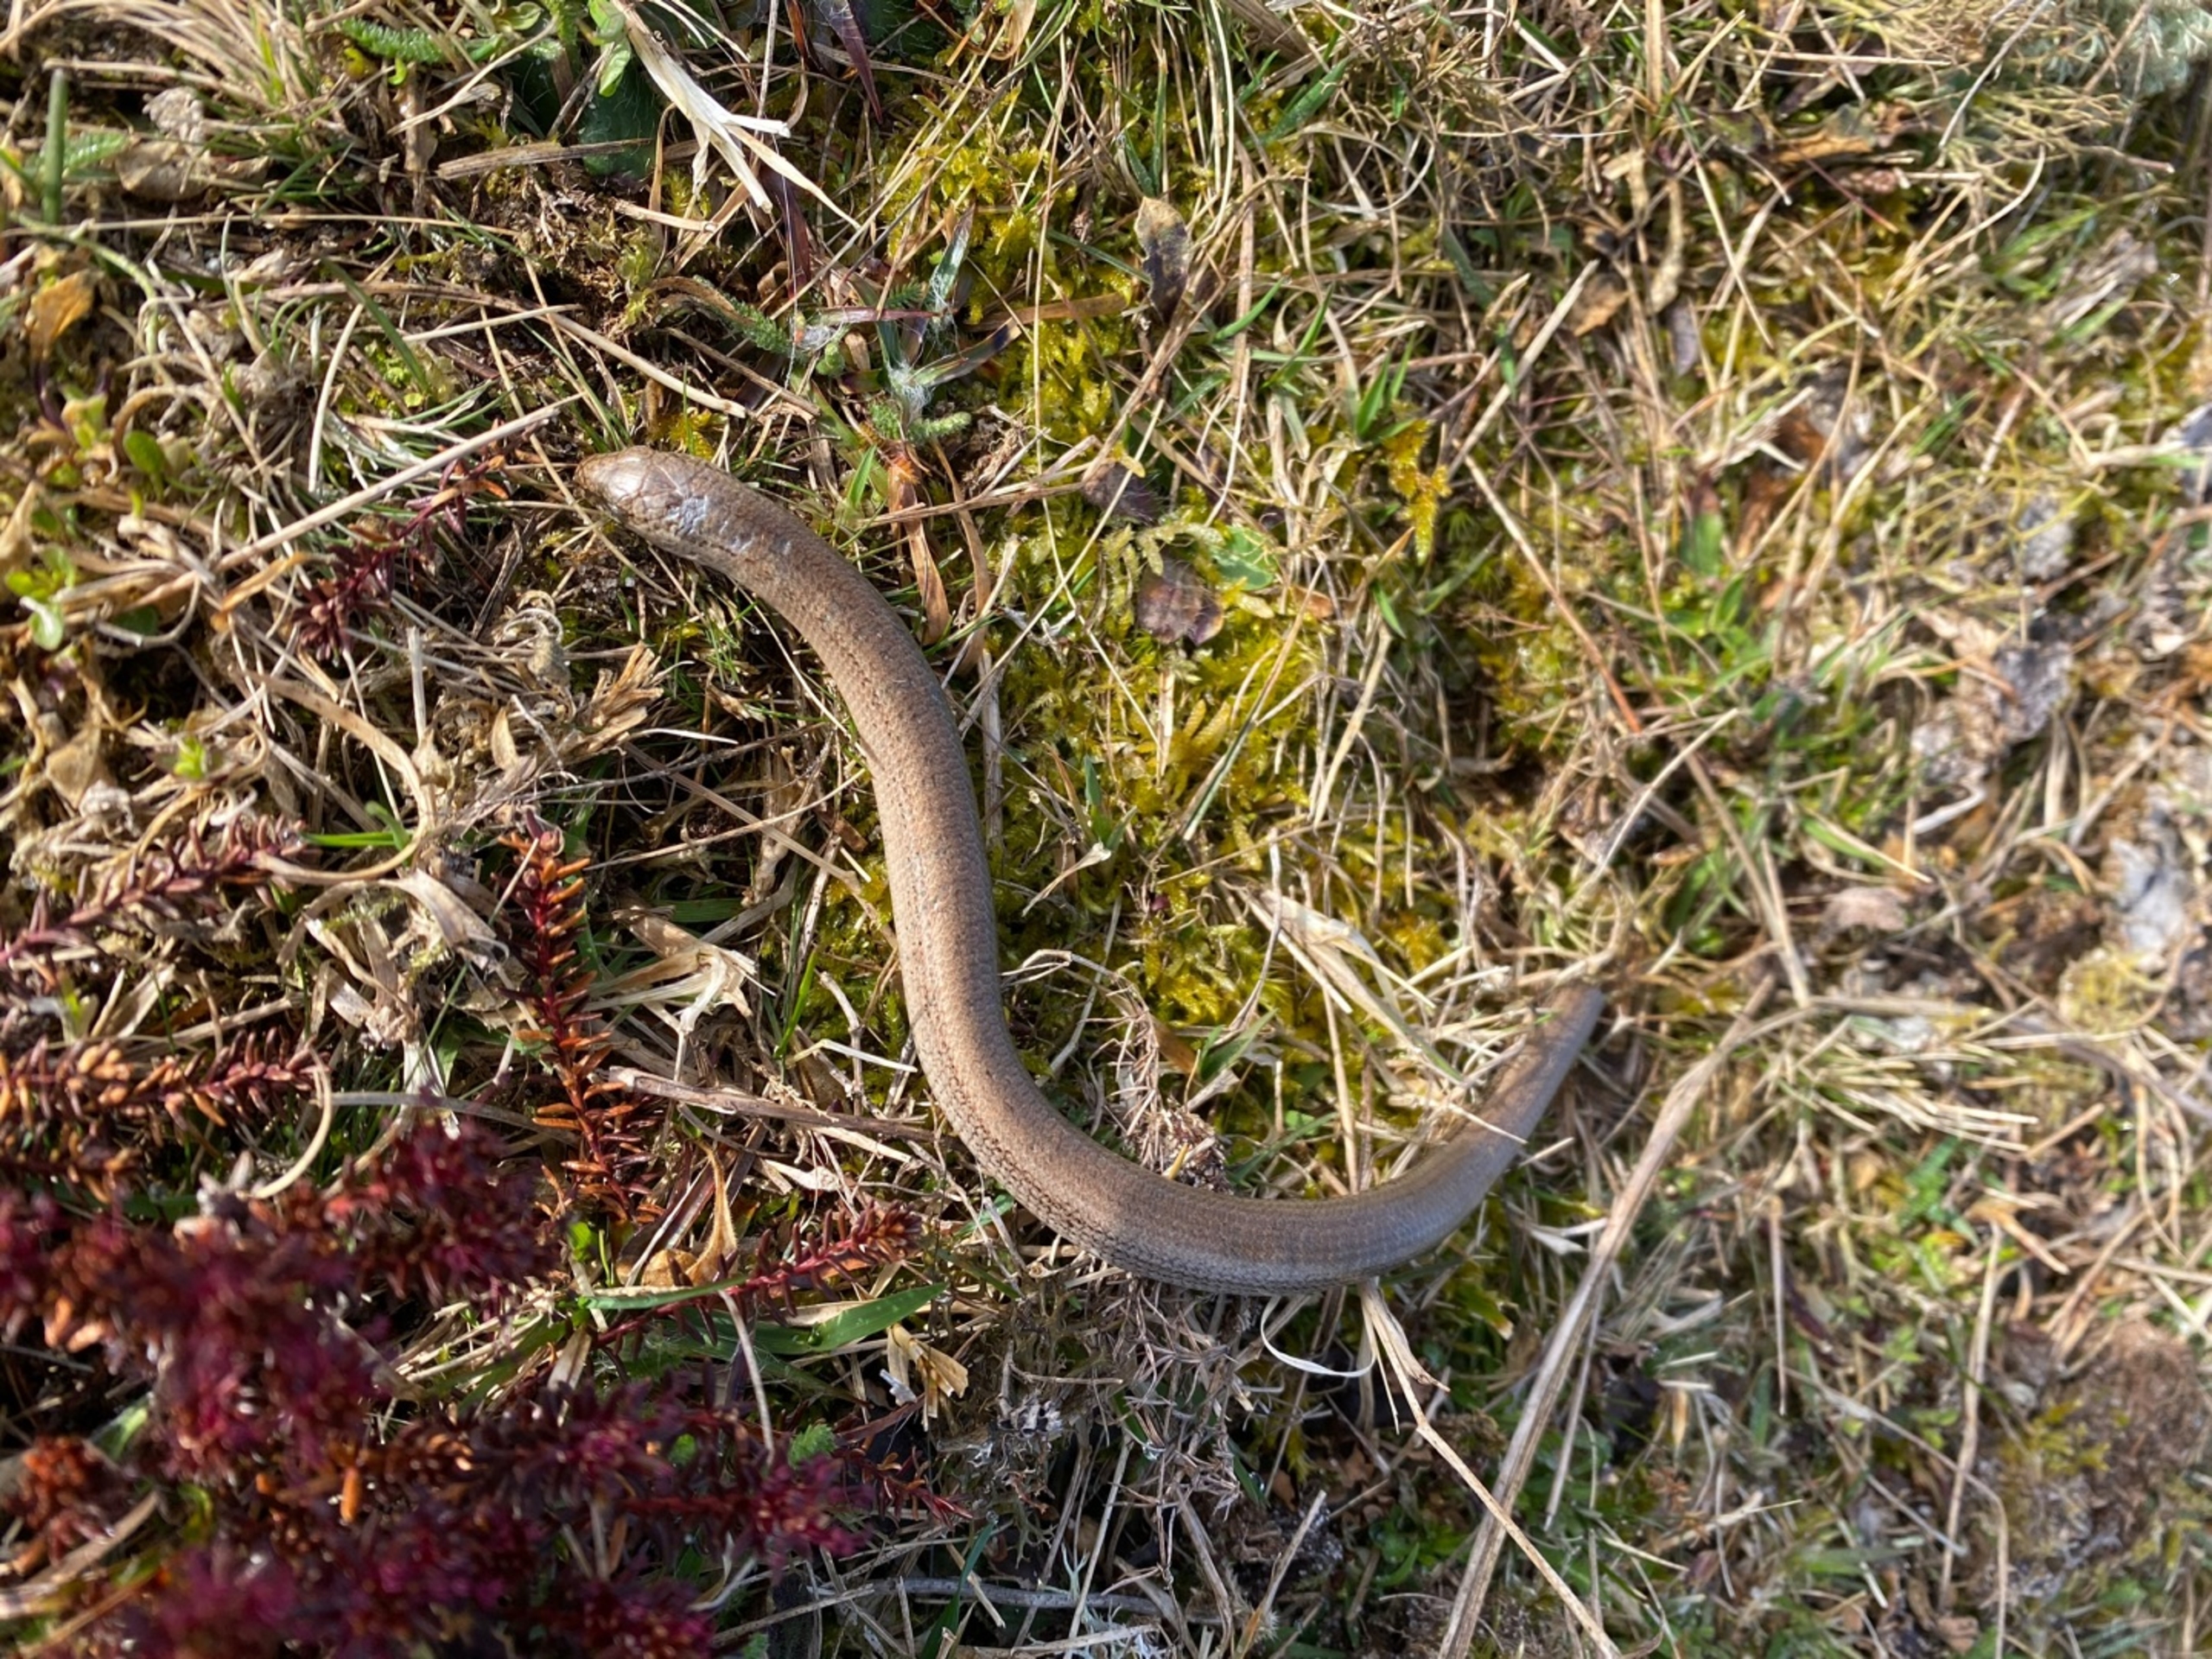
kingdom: Animalia
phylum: Chordata
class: Squamata
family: Anguidae
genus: Anguis
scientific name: Anguis fragilis
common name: Stålorm
